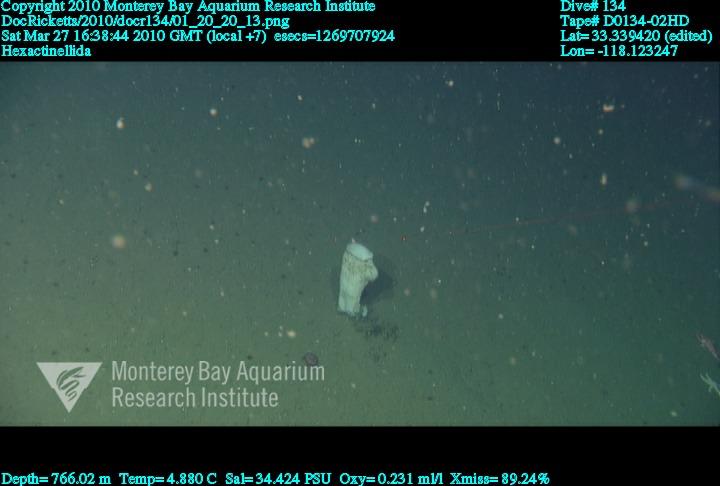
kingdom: Animalia
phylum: Porifera
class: Hexactinellida
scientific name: Hexactinellida
